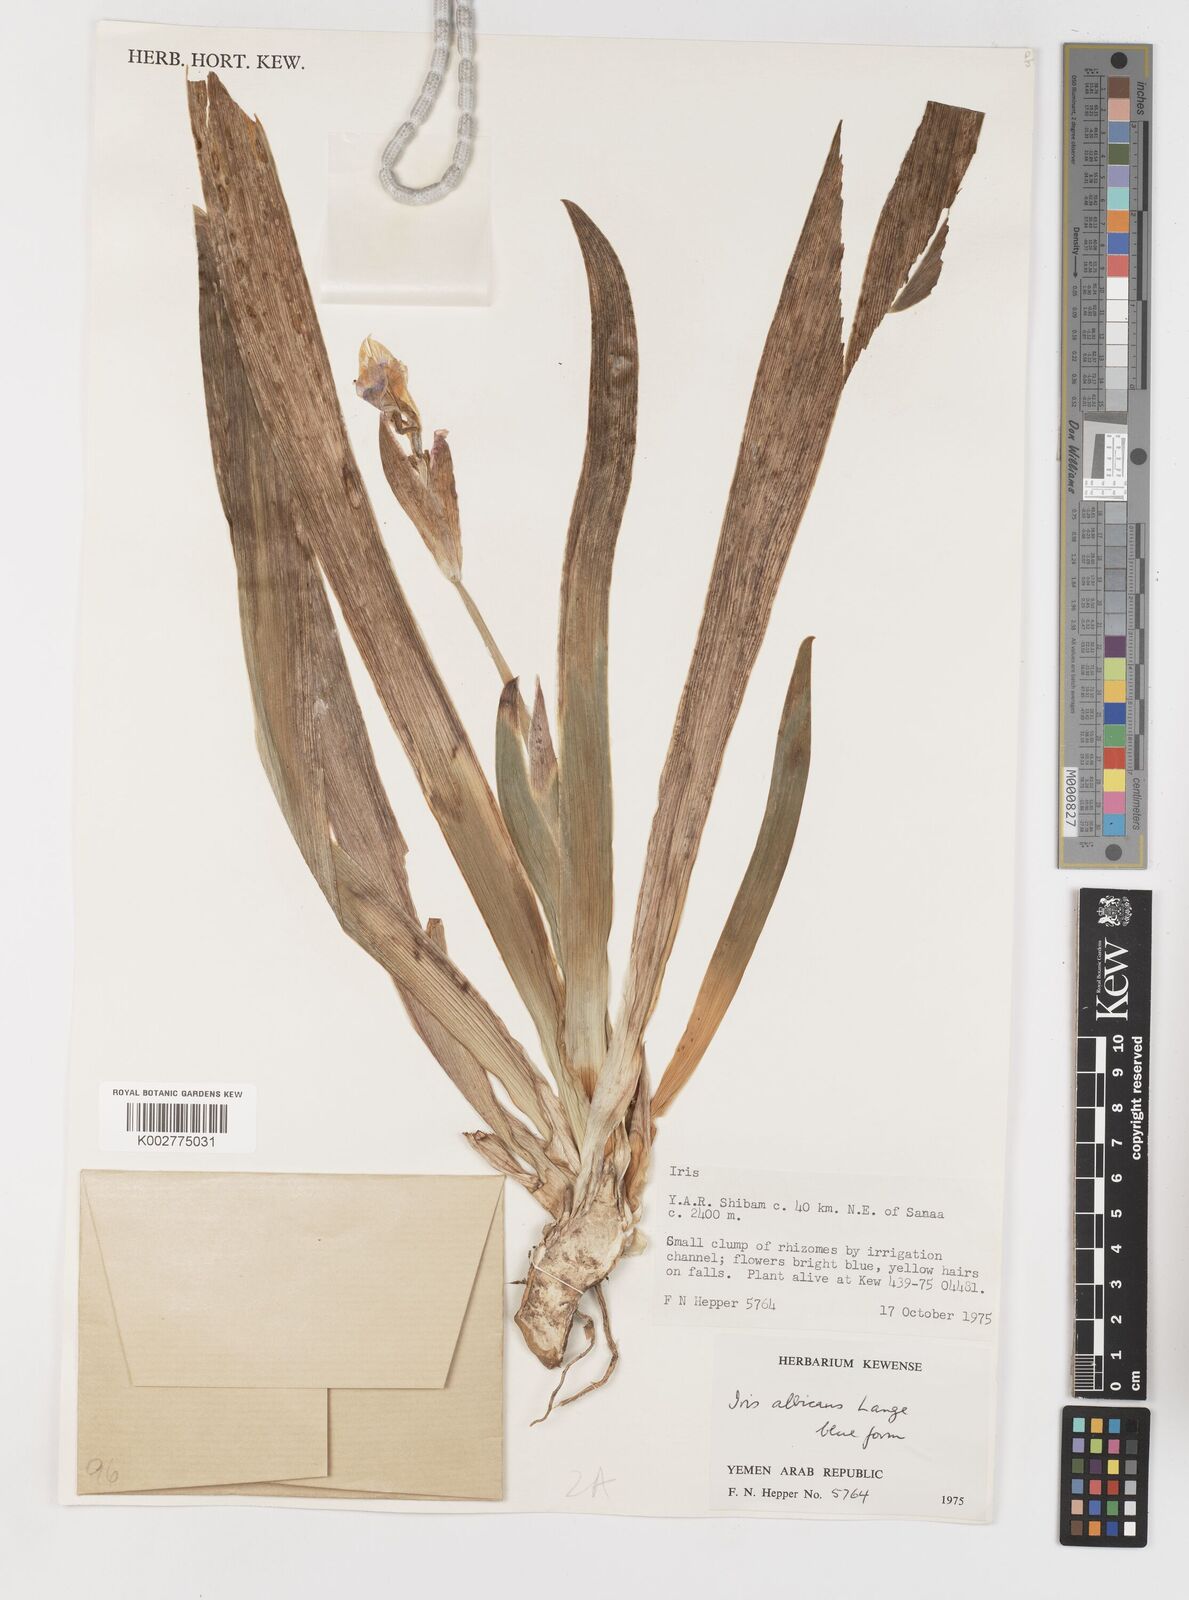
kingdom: Plantae
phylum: Tracheophyta
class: Liliopsida
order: Asparagales
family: Iridaceae
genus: Iris
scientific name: Iris florentina
